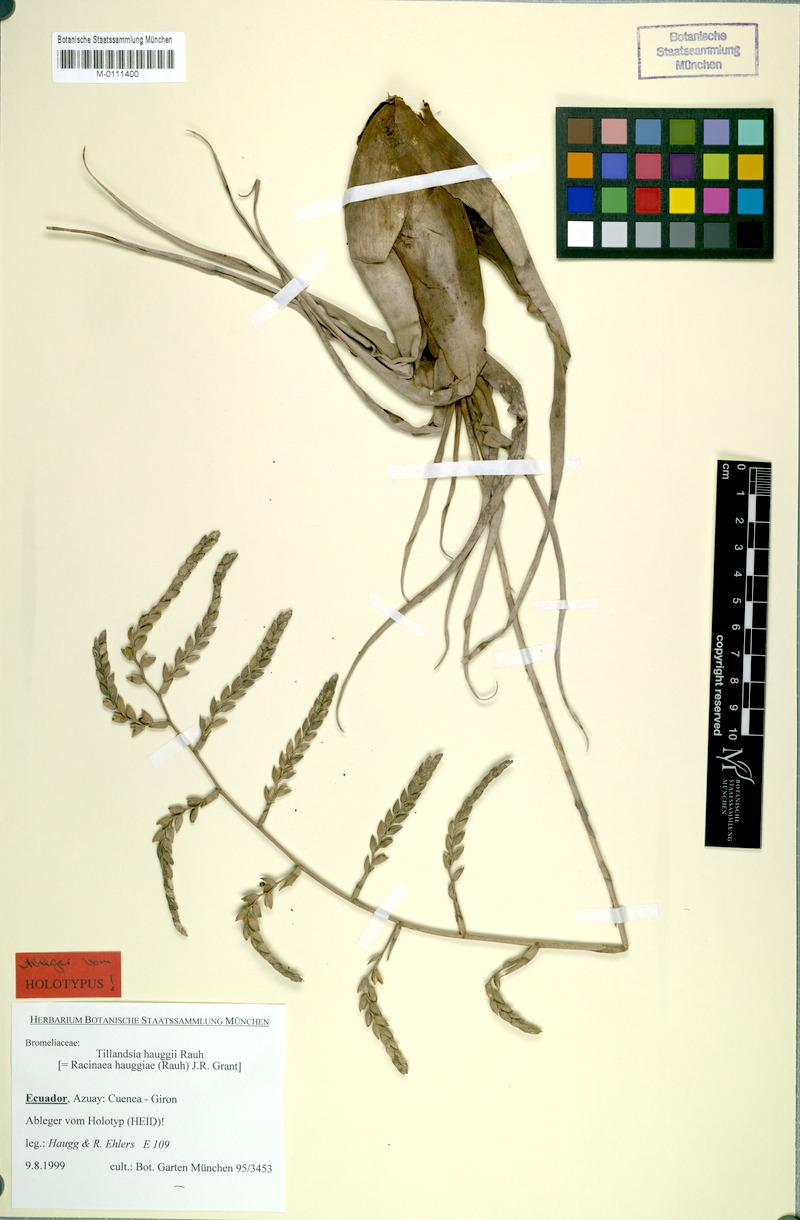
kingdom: Plantae
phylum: Tracheophyta
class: Liliopsida
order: Poales
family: Bromeliaceae
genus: Racinaea
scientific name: Racinaea hauggiae
